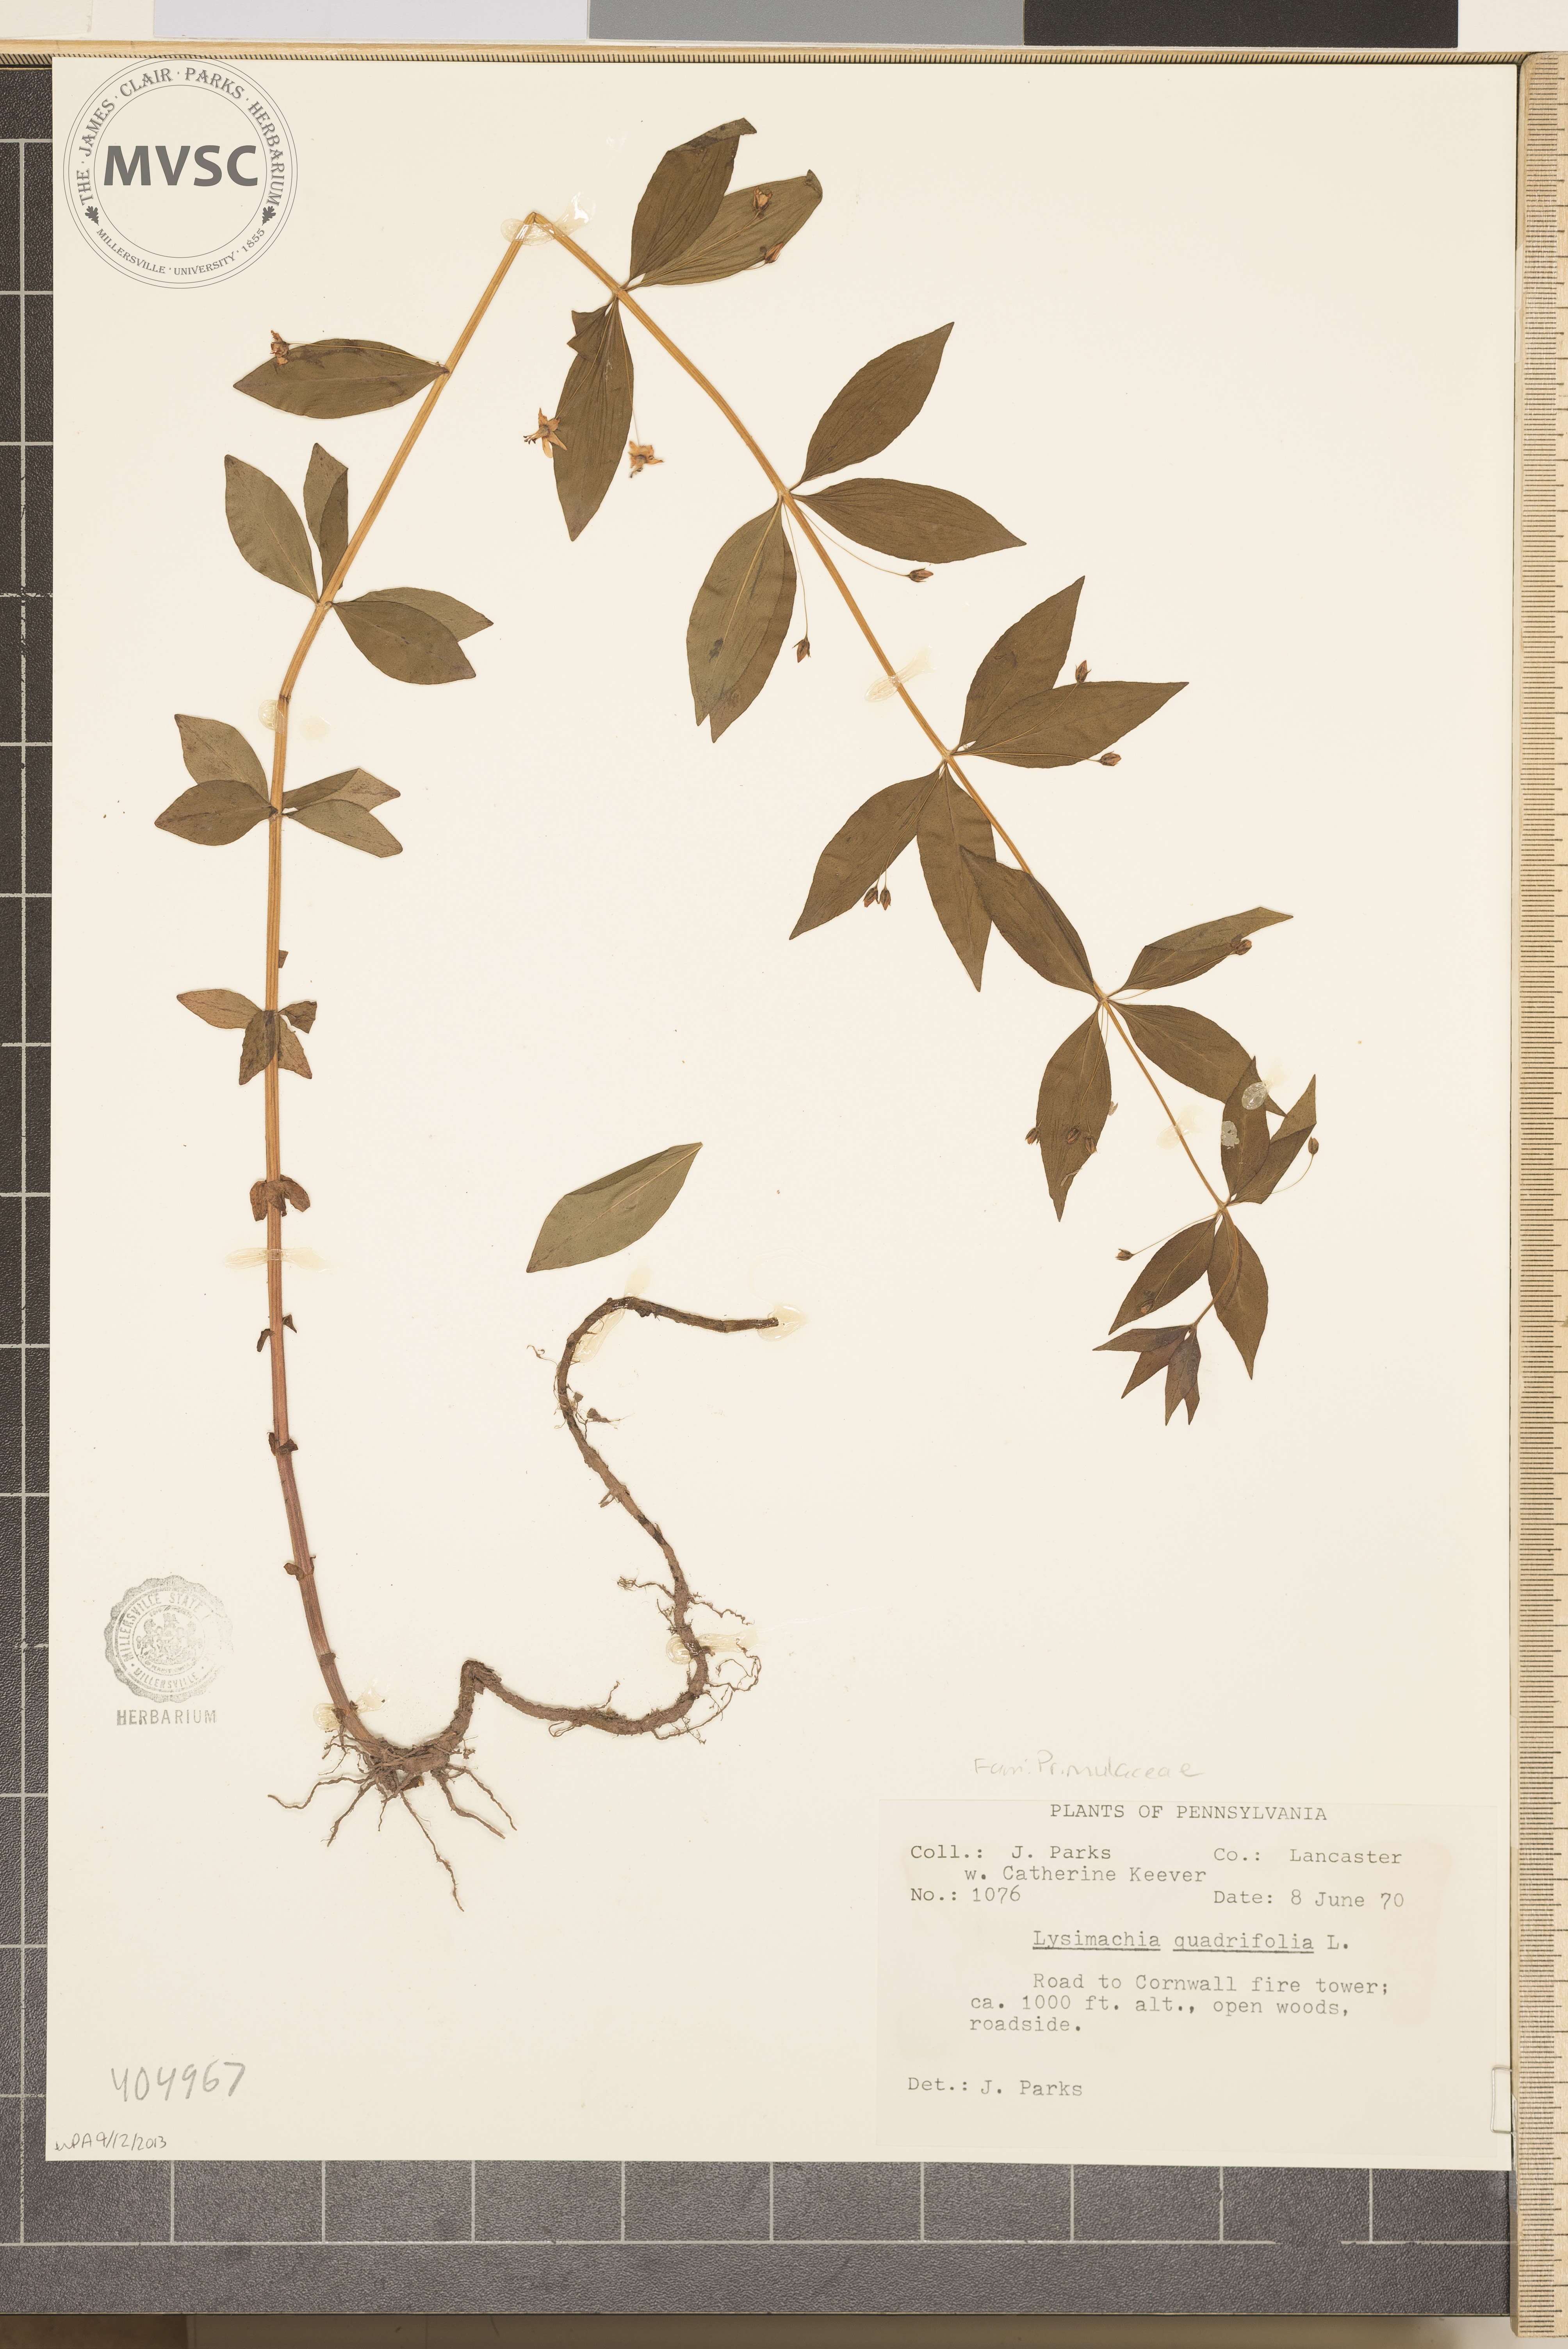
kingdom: Plantae
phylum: Tracheophyta
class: Magnoliopsida
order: Ericales
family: Primulaceae
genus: Lysimachia
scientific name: Lysimachia quadrifolia
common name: Whorled loosestrife
